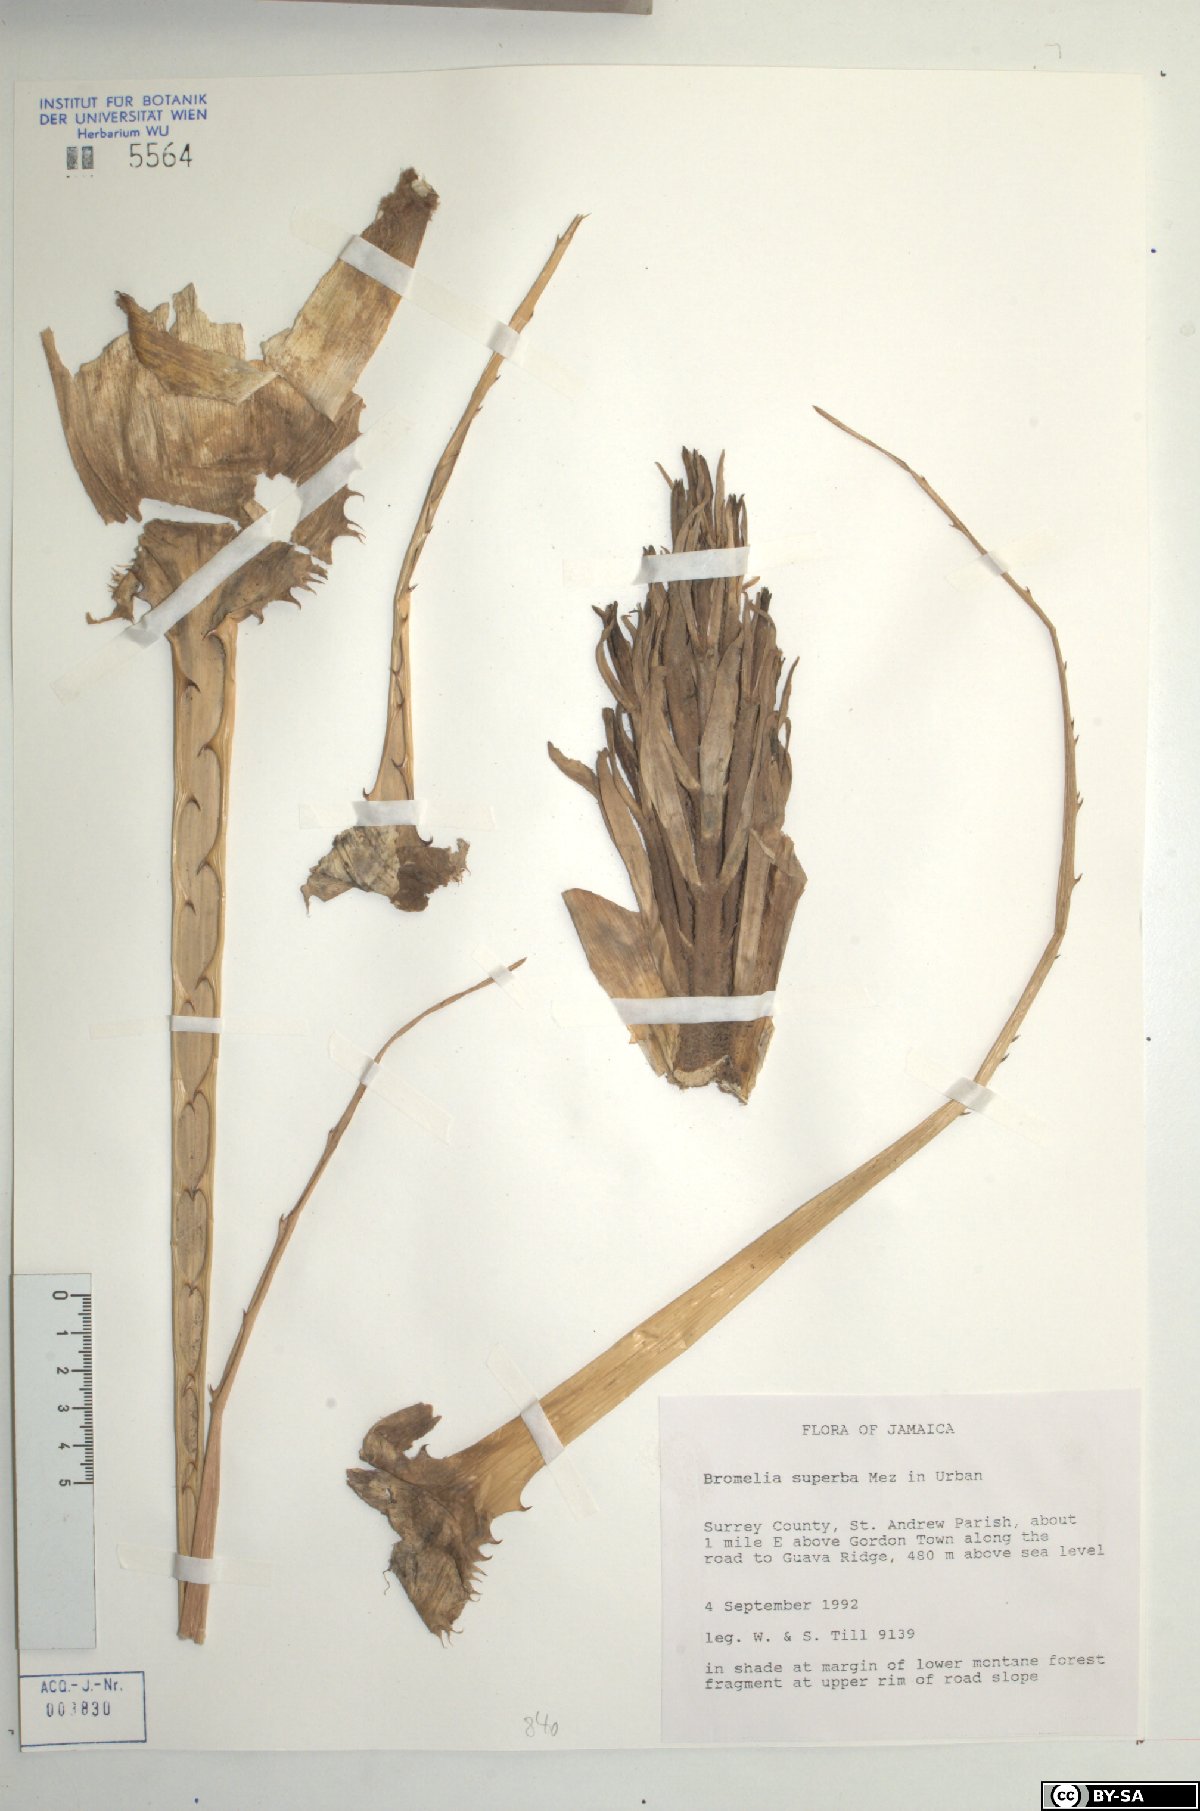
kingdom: Plantae
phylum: Tracheophyta
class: Liliopsida
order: Poales
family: Bromeliaceae
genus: Bromelia
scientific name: Bromelia superba
